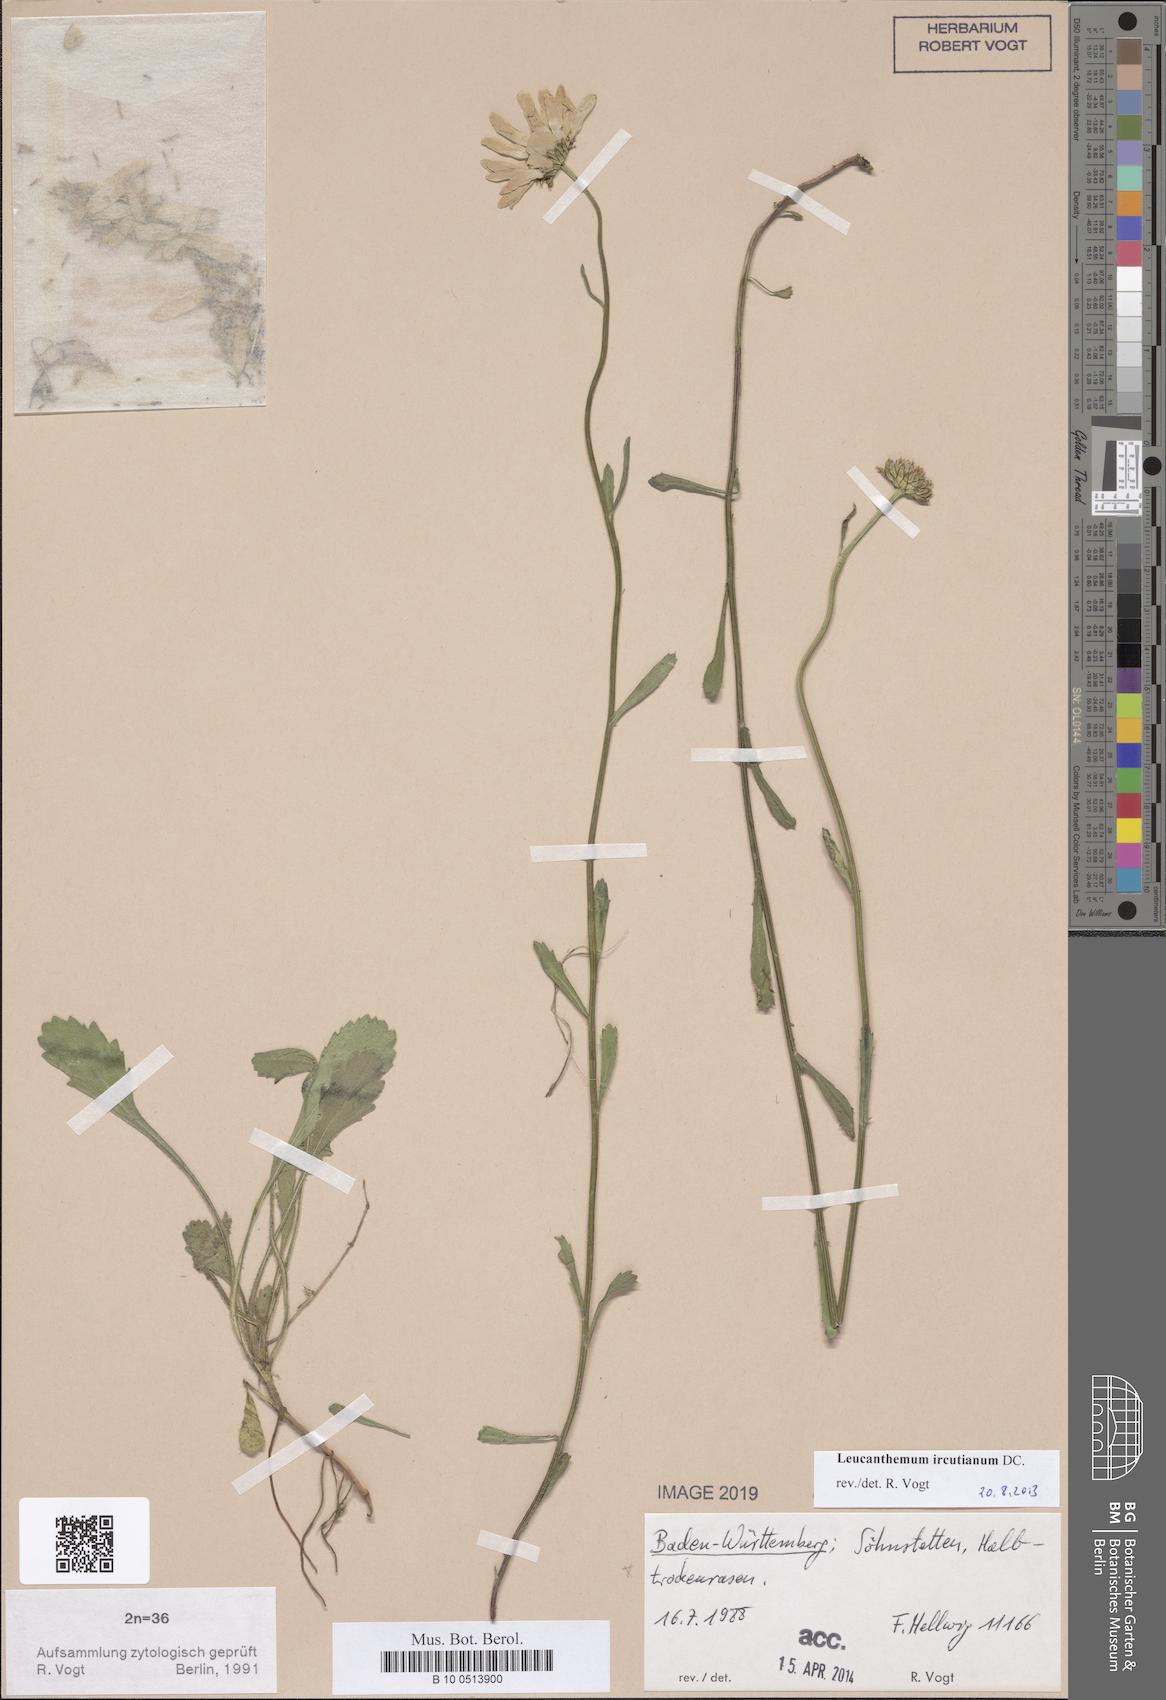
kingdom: Plantae
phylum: Tracheophyta
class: Magnoliopsida
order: Asterales
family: Asteraceae
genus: Leucanthemum
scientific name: Leucanthemum ircutianum
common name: Daisy
